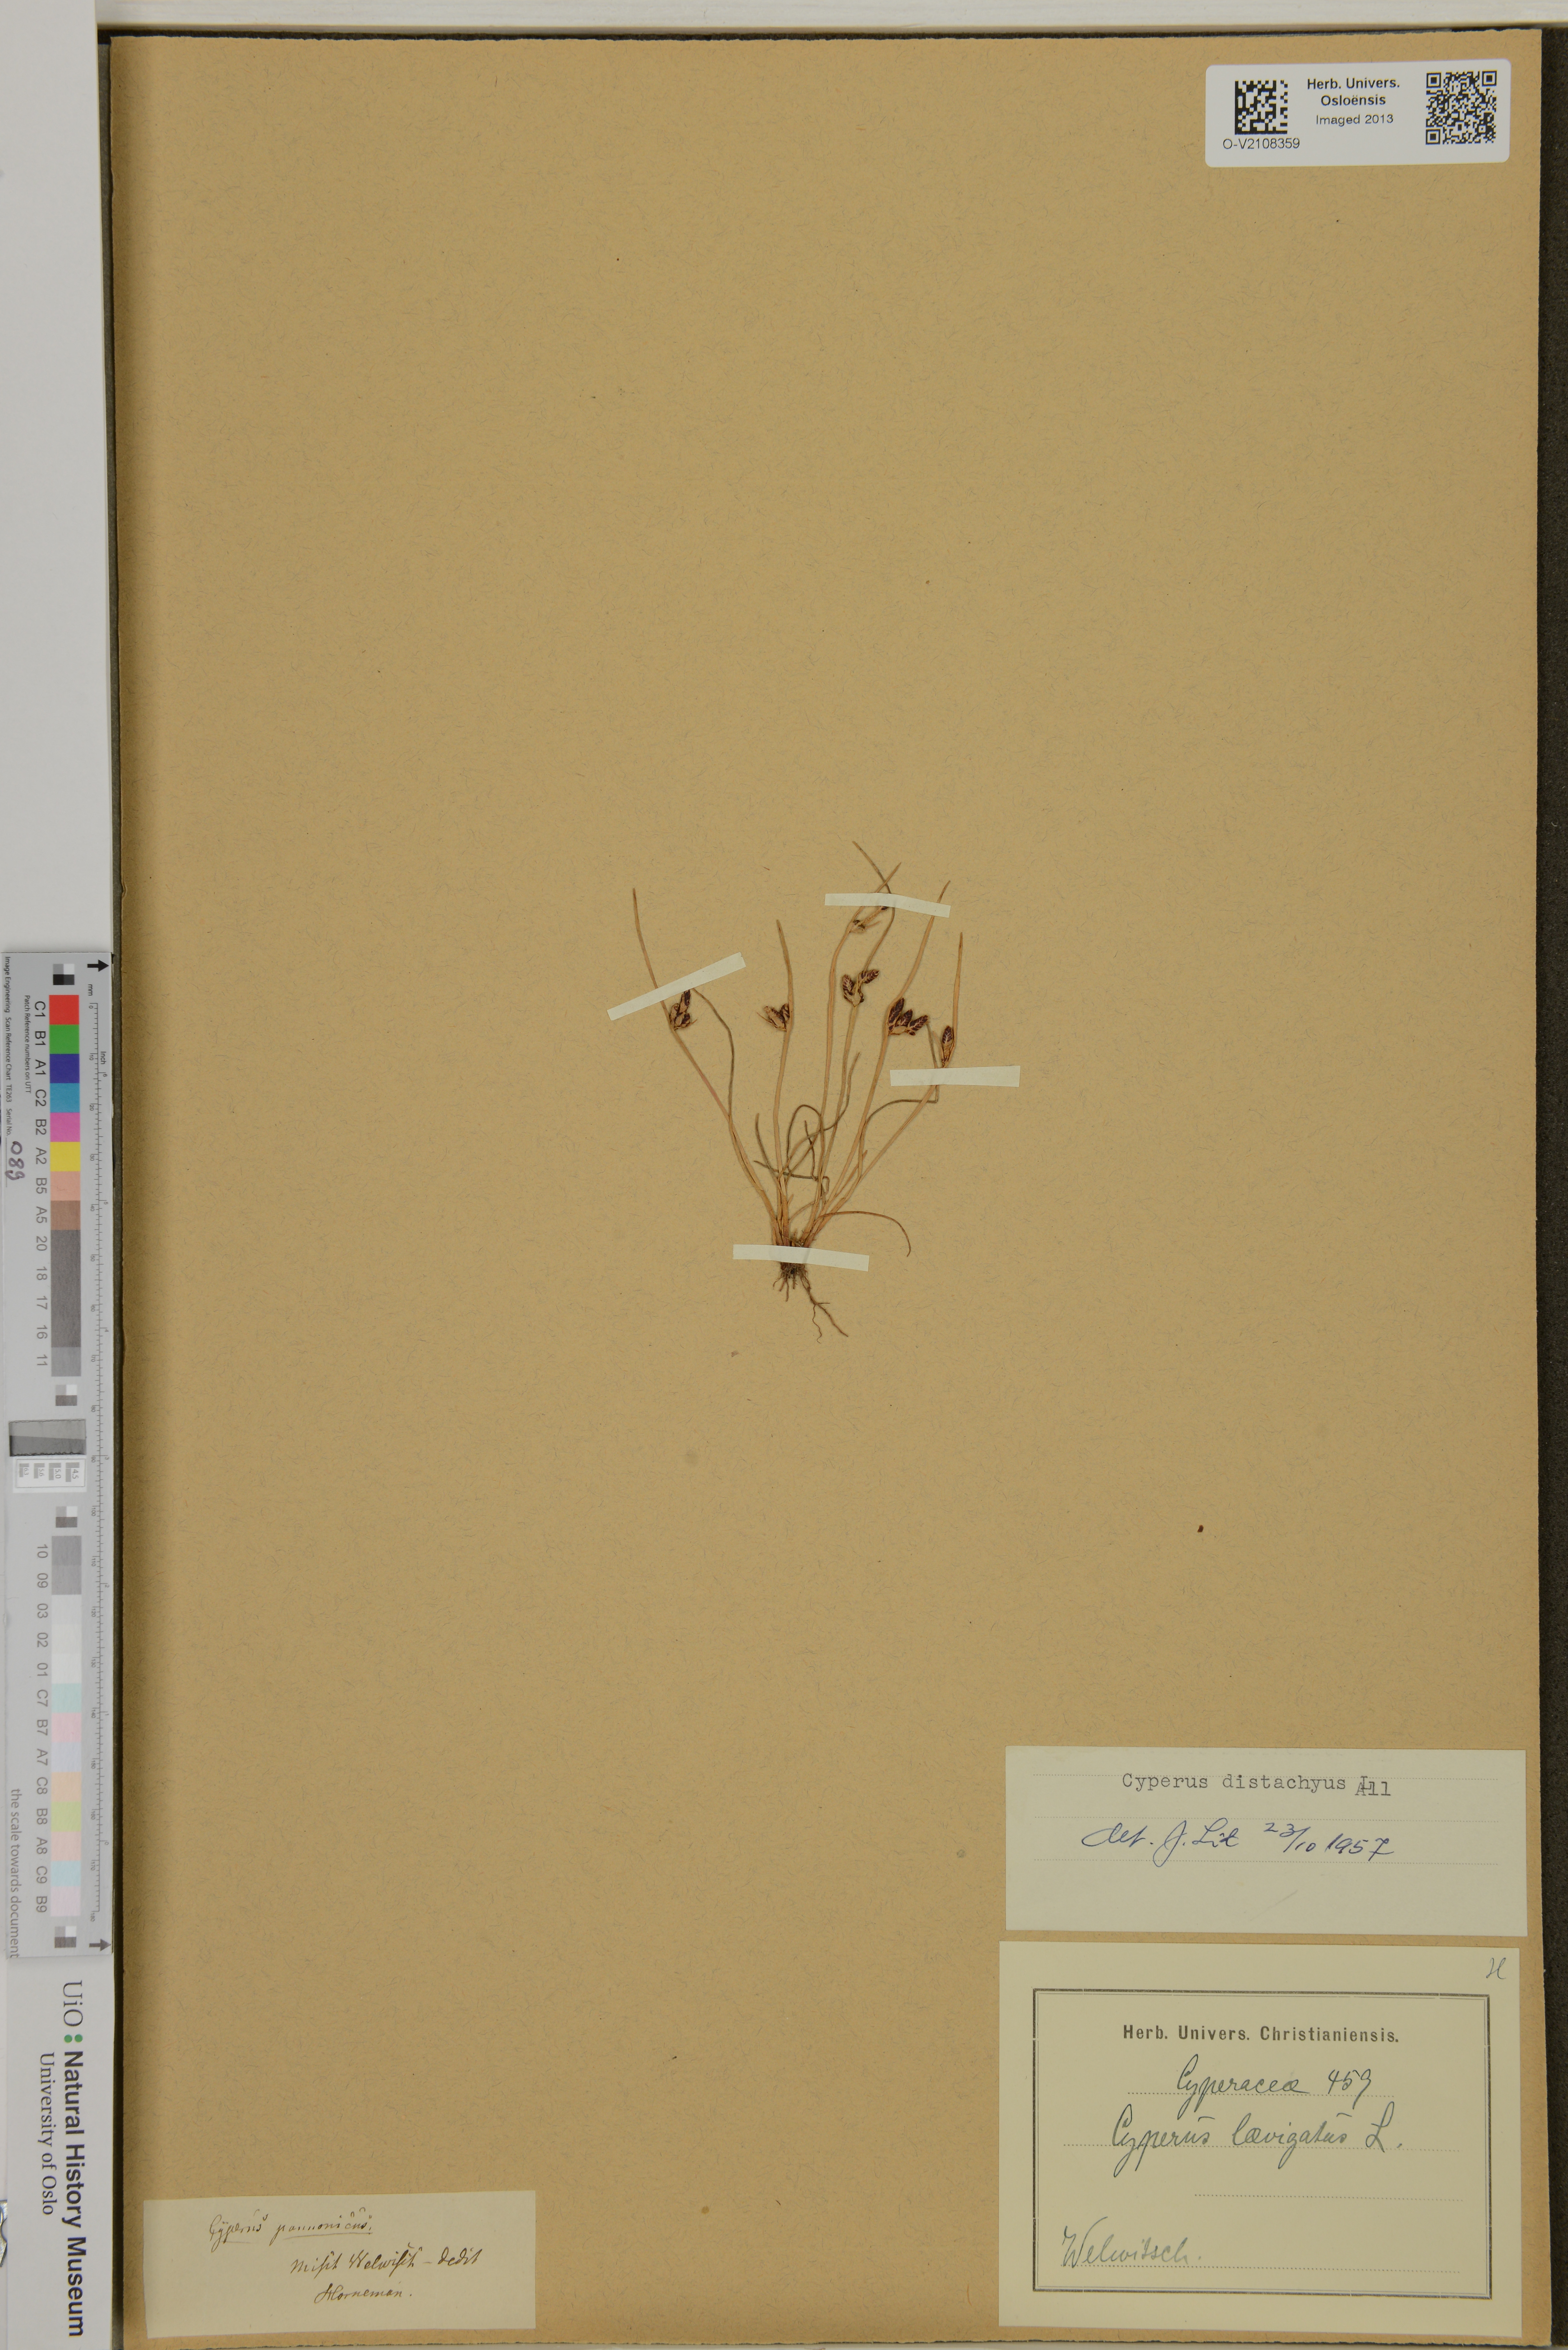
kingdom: Plantae
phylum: Tracheophyta
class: Liliopsida
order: Poales
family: Cyperaceae
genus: Cyperus
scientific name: Cyperus laevigatus
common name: Smooth flat sedge
